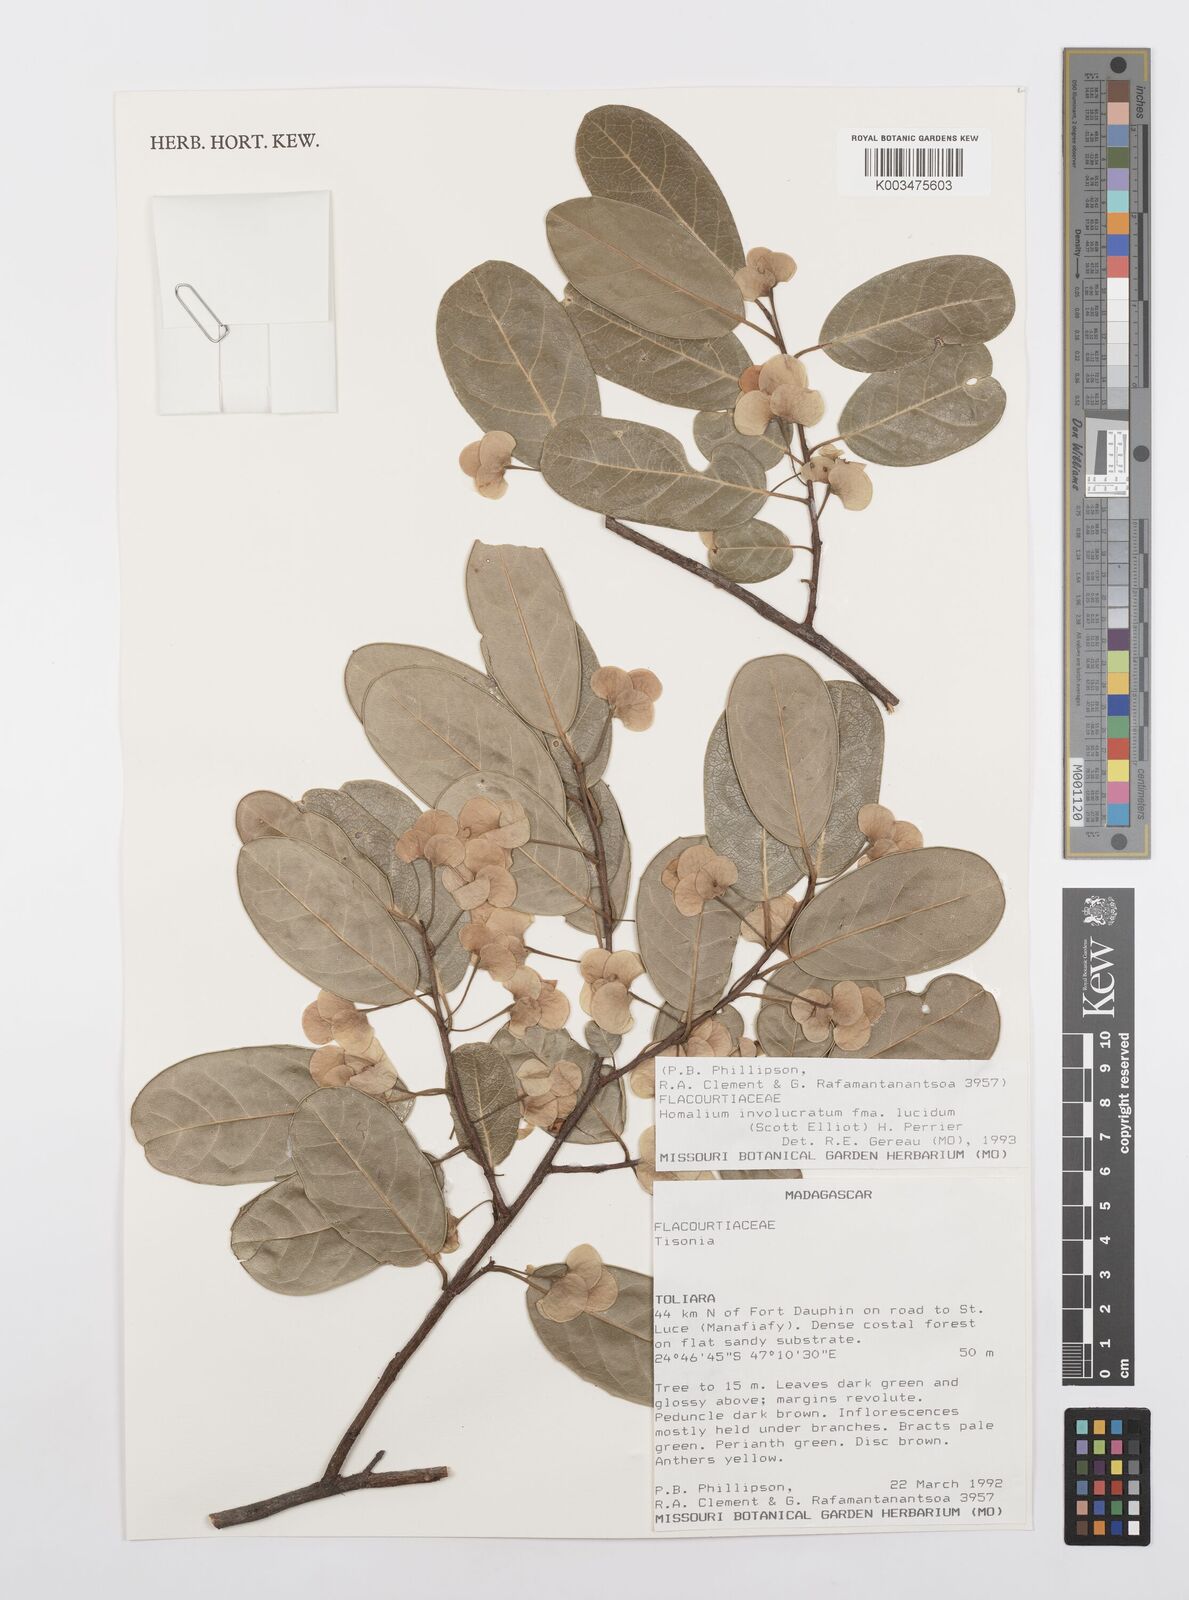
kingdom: Plantae
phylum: Tracheophyta
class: Magnoliopsida
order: Malpighiales
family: Salicaceae
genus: Homalium
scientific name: Homalium involucratum
